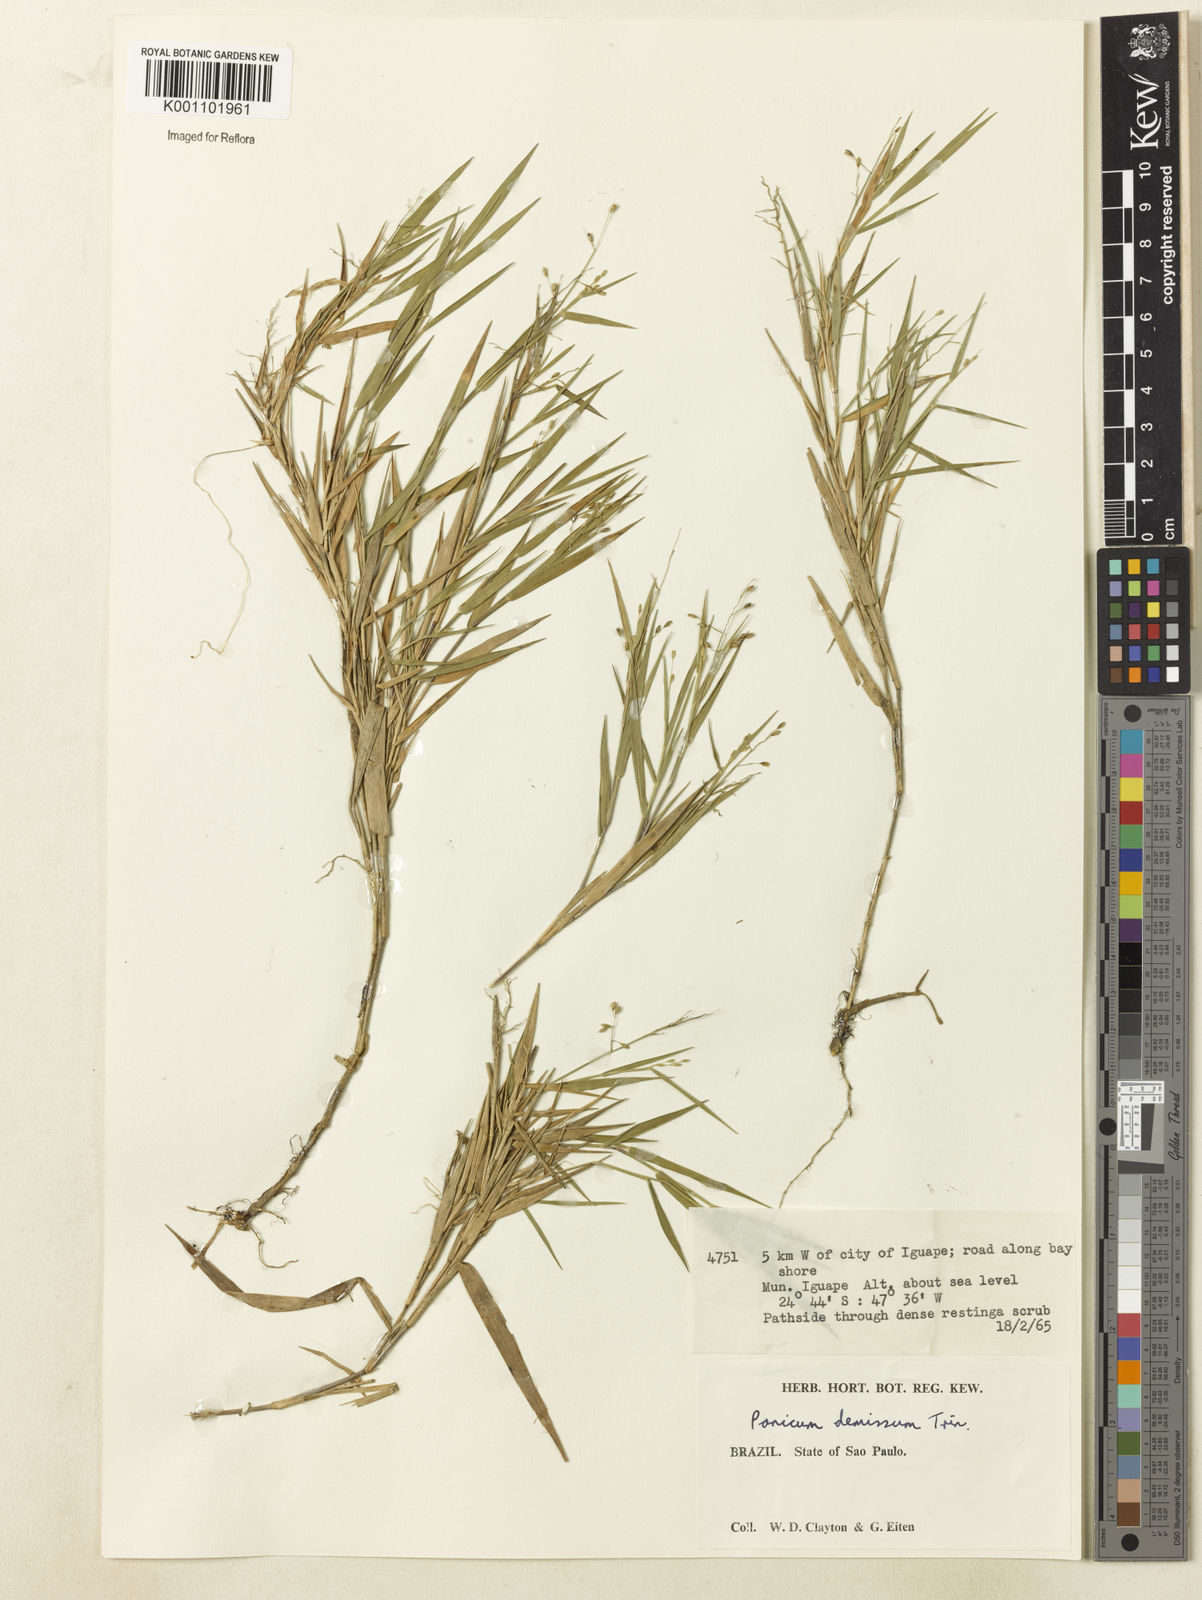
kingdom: Plantae
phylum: Tracheophyta
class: Liliopsida
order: Poales
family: Poaceae
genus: Dichanthelium
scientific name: Dichanthelium sabulorum
